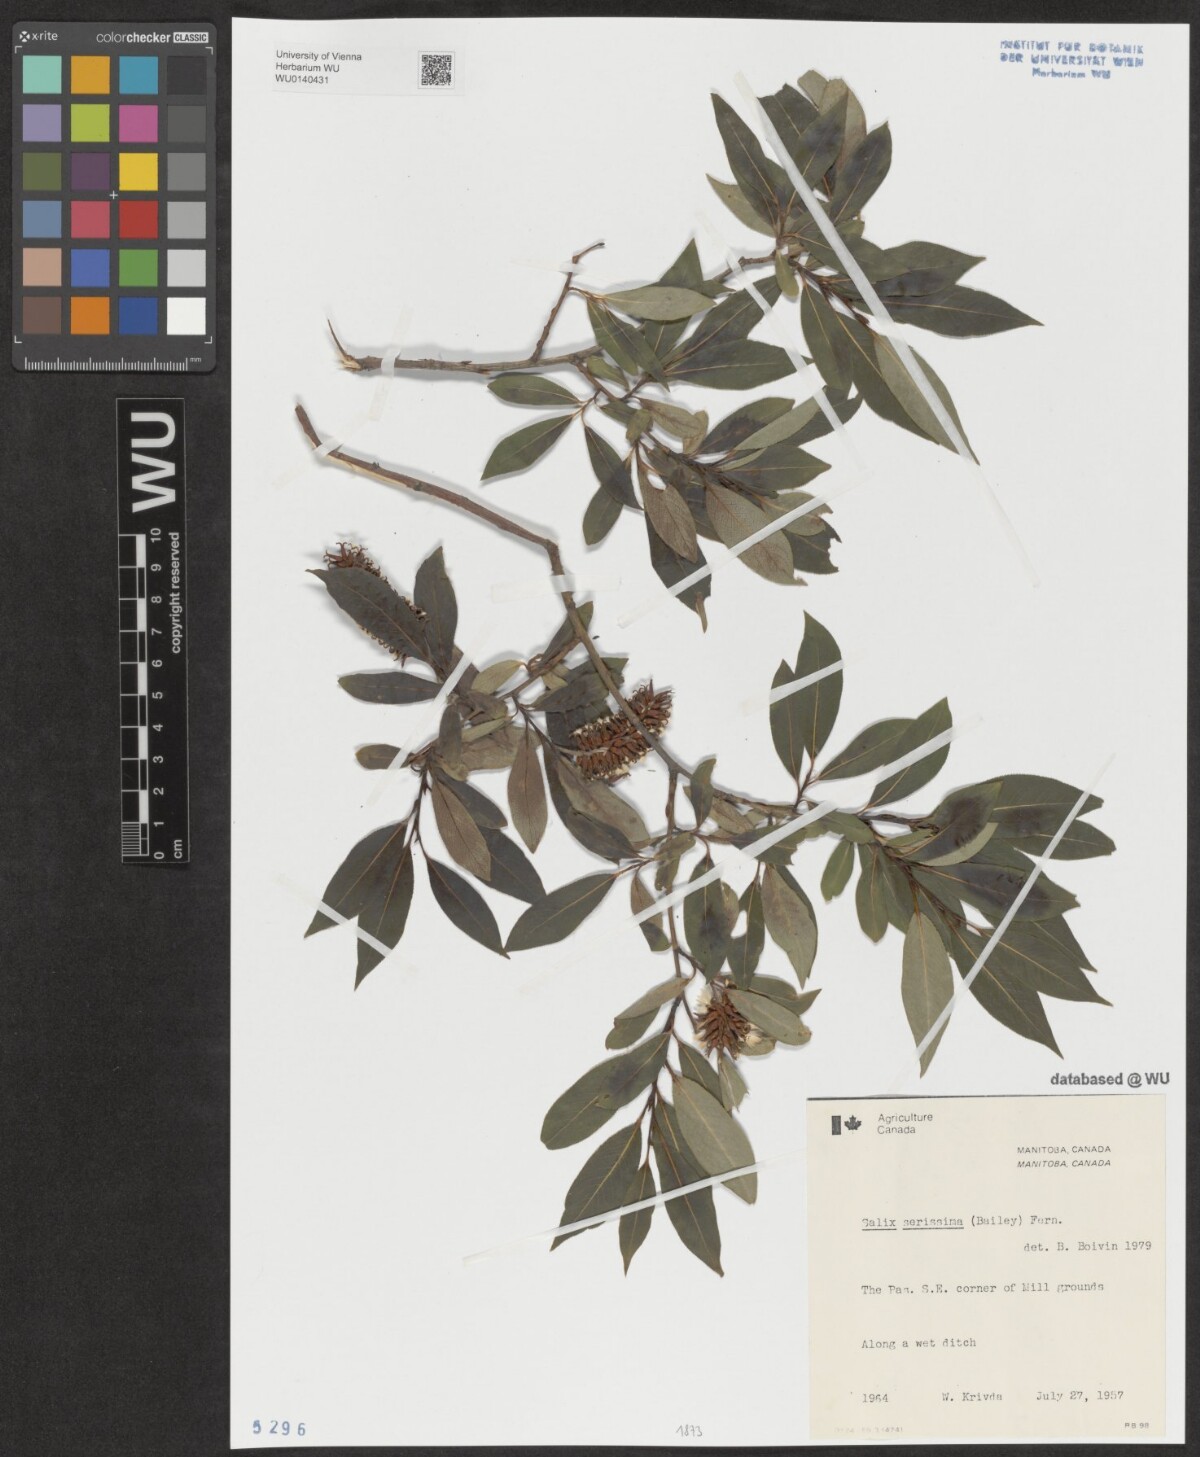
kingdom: Plantae
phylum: Tracheophyta
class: Magnoliopsida
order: Malpighiales
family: Salicaceae
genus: Salix
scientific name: Salix serissima
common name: Autumn willow
